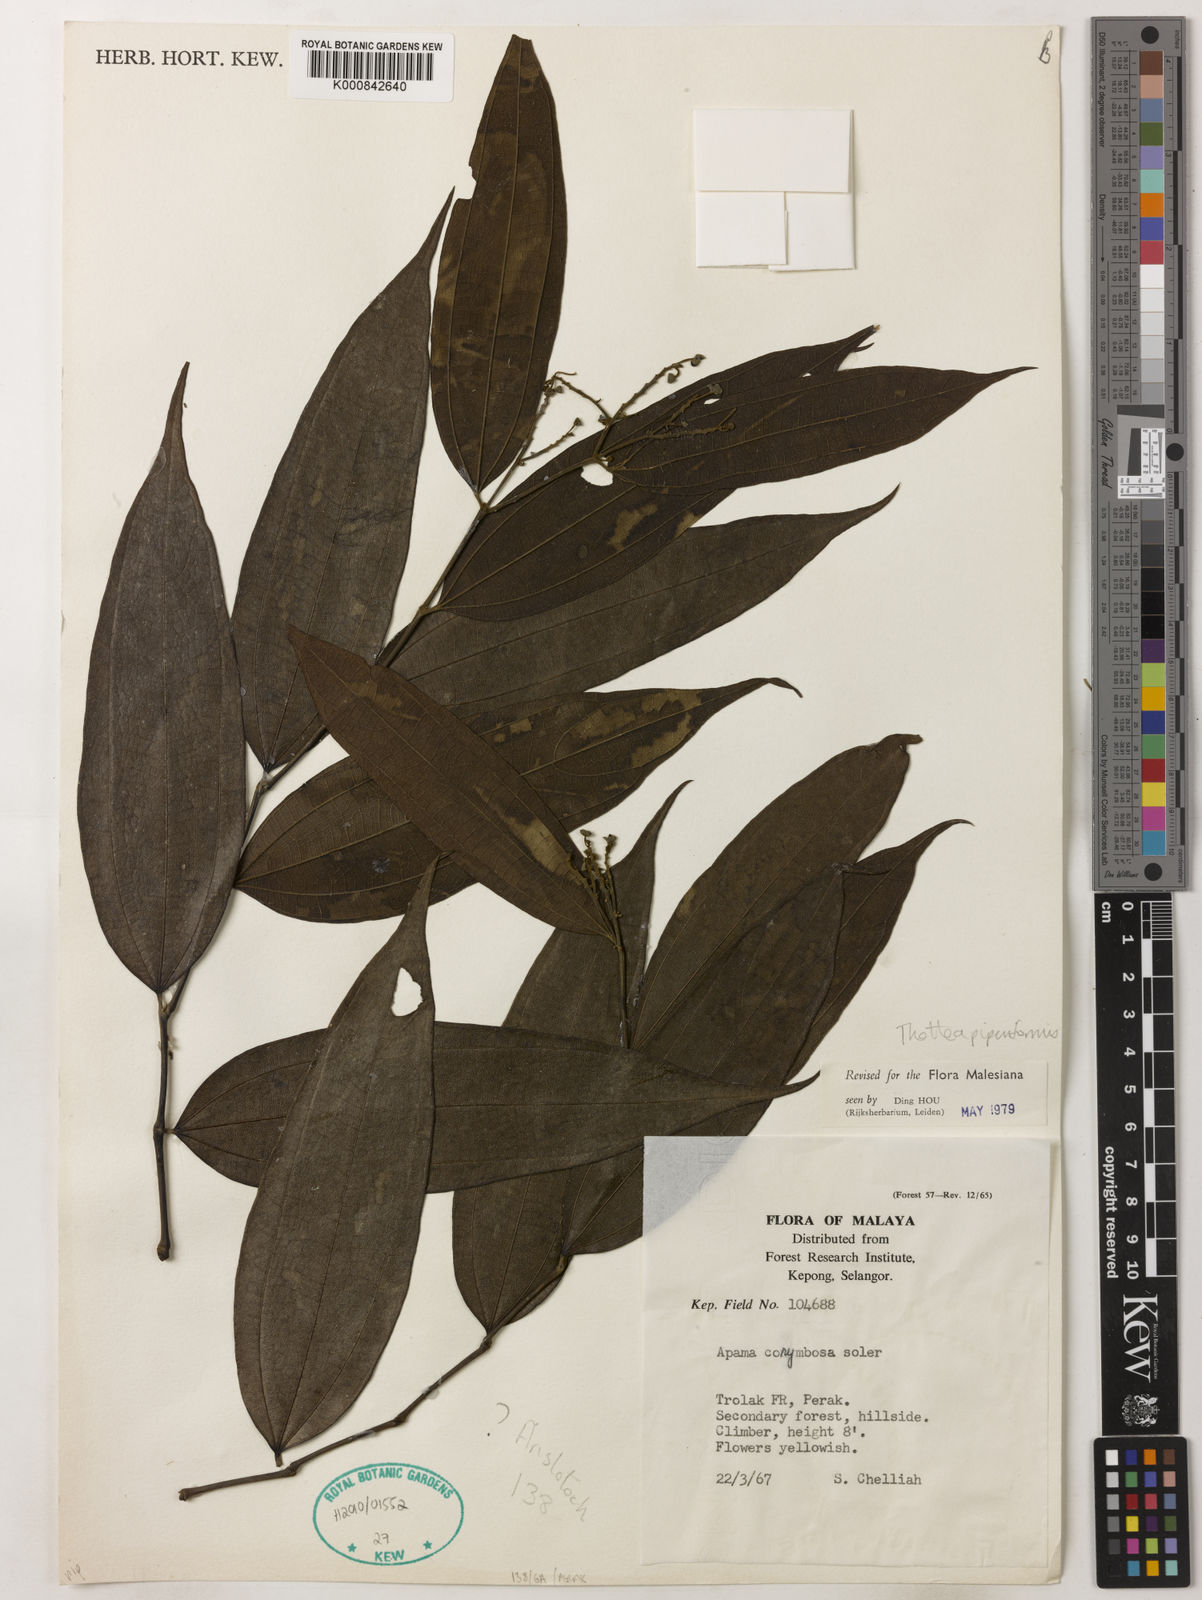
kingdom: Plantae
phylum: Tracheophyta
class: Magnoliopsida
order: Piperales
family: Aristolochiaceae
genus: Thottea
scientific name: Thottea piperiformis
